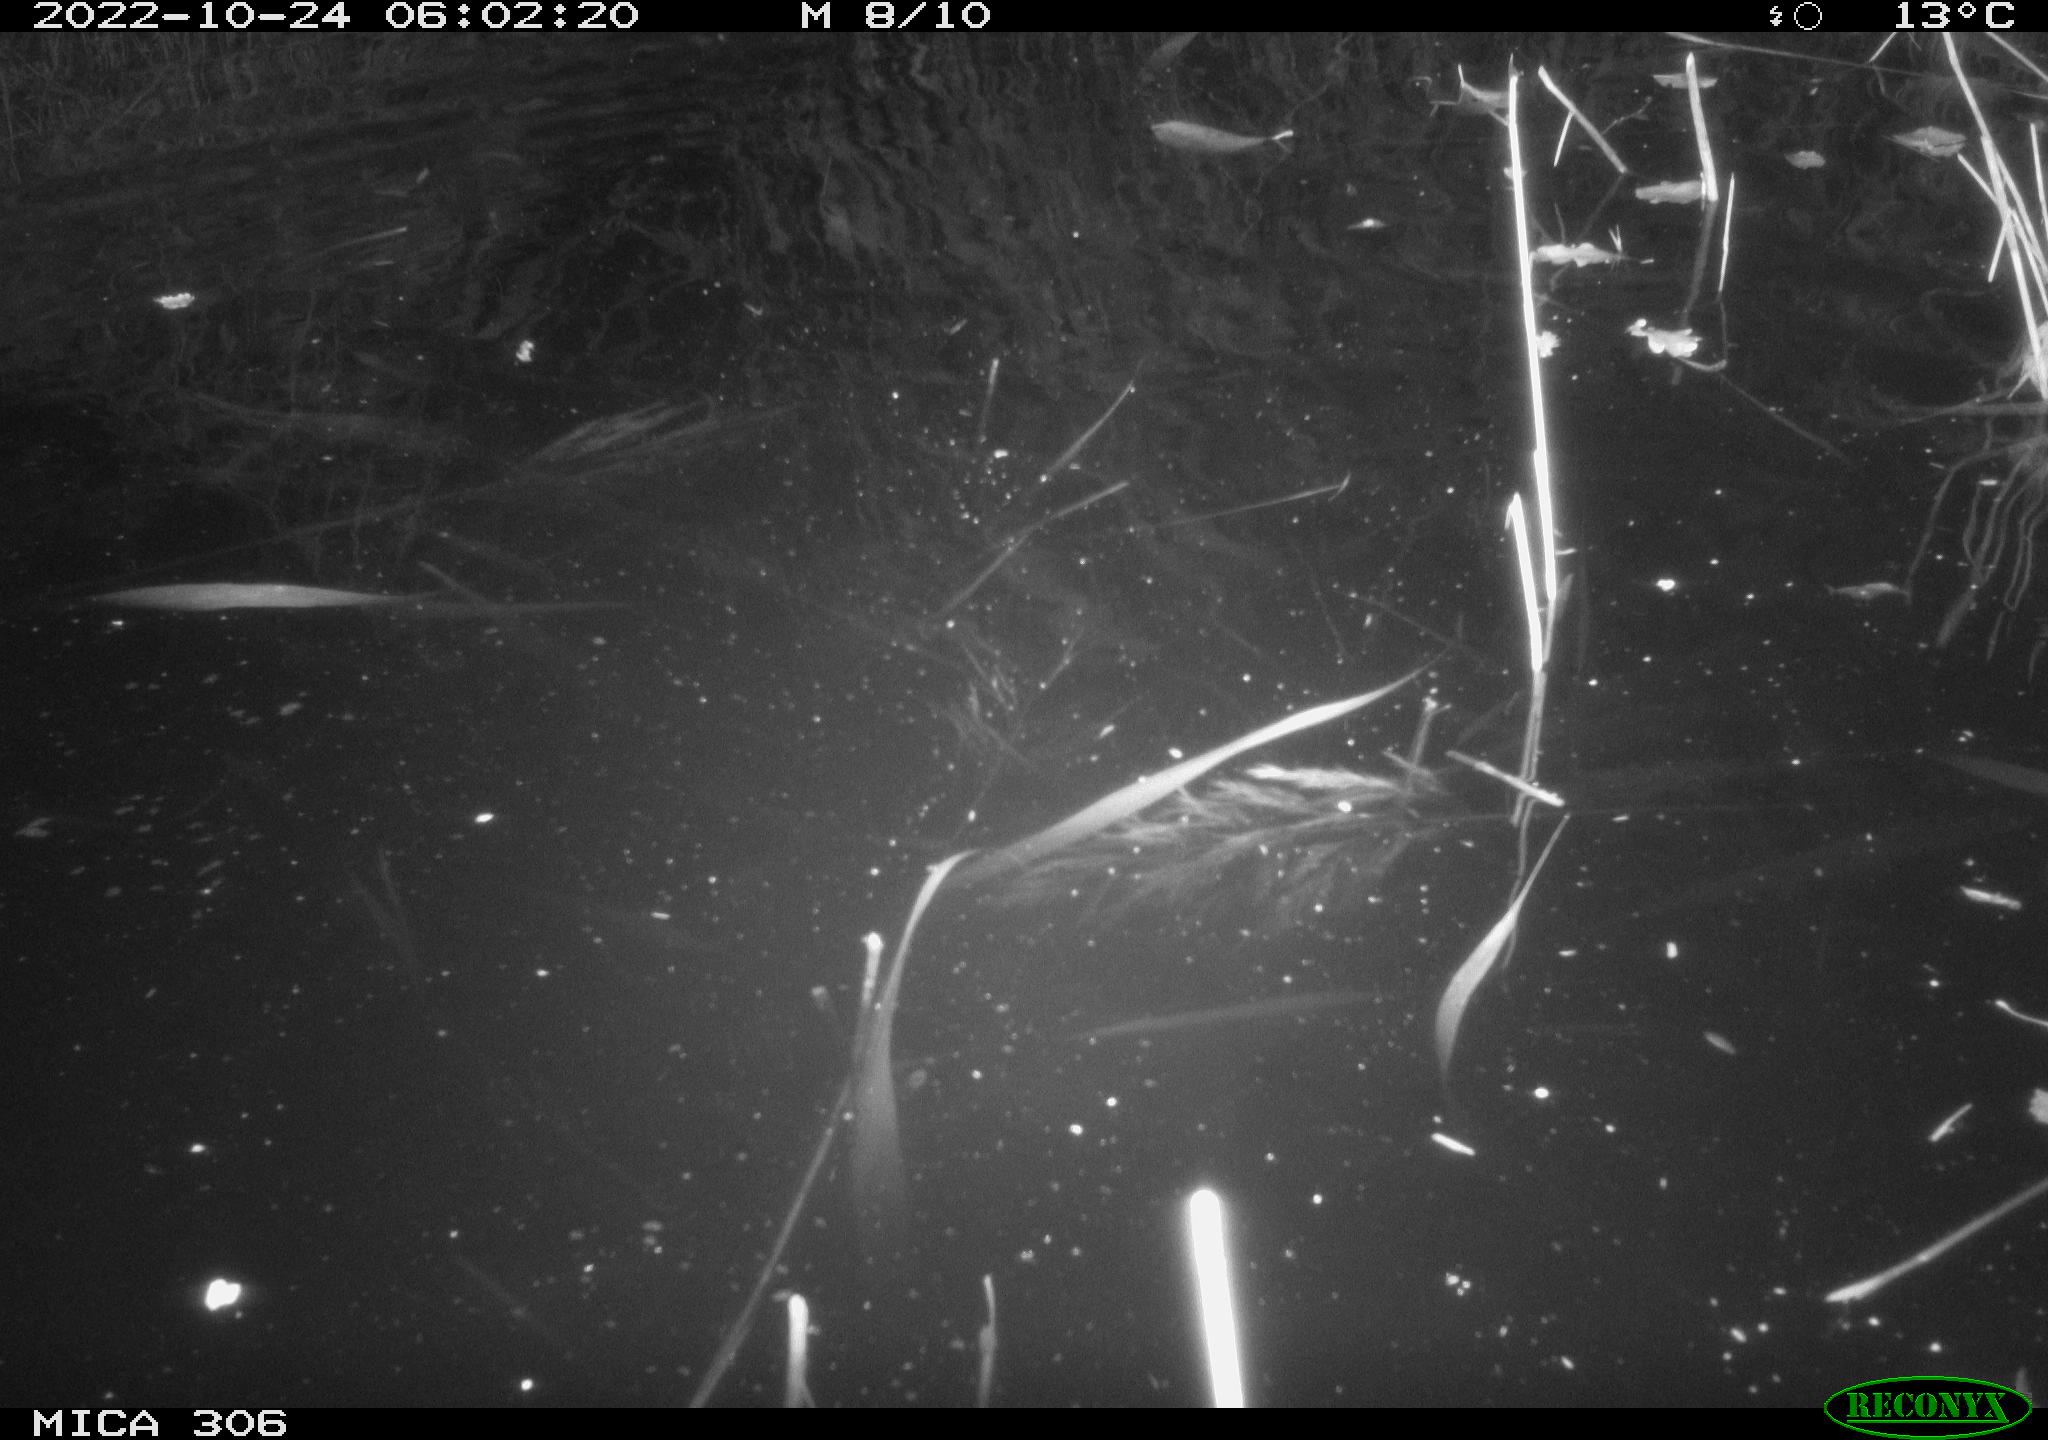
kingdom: Animalia
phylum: Chordata
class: Mammalia
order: Rodentia
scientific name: Rodentia
